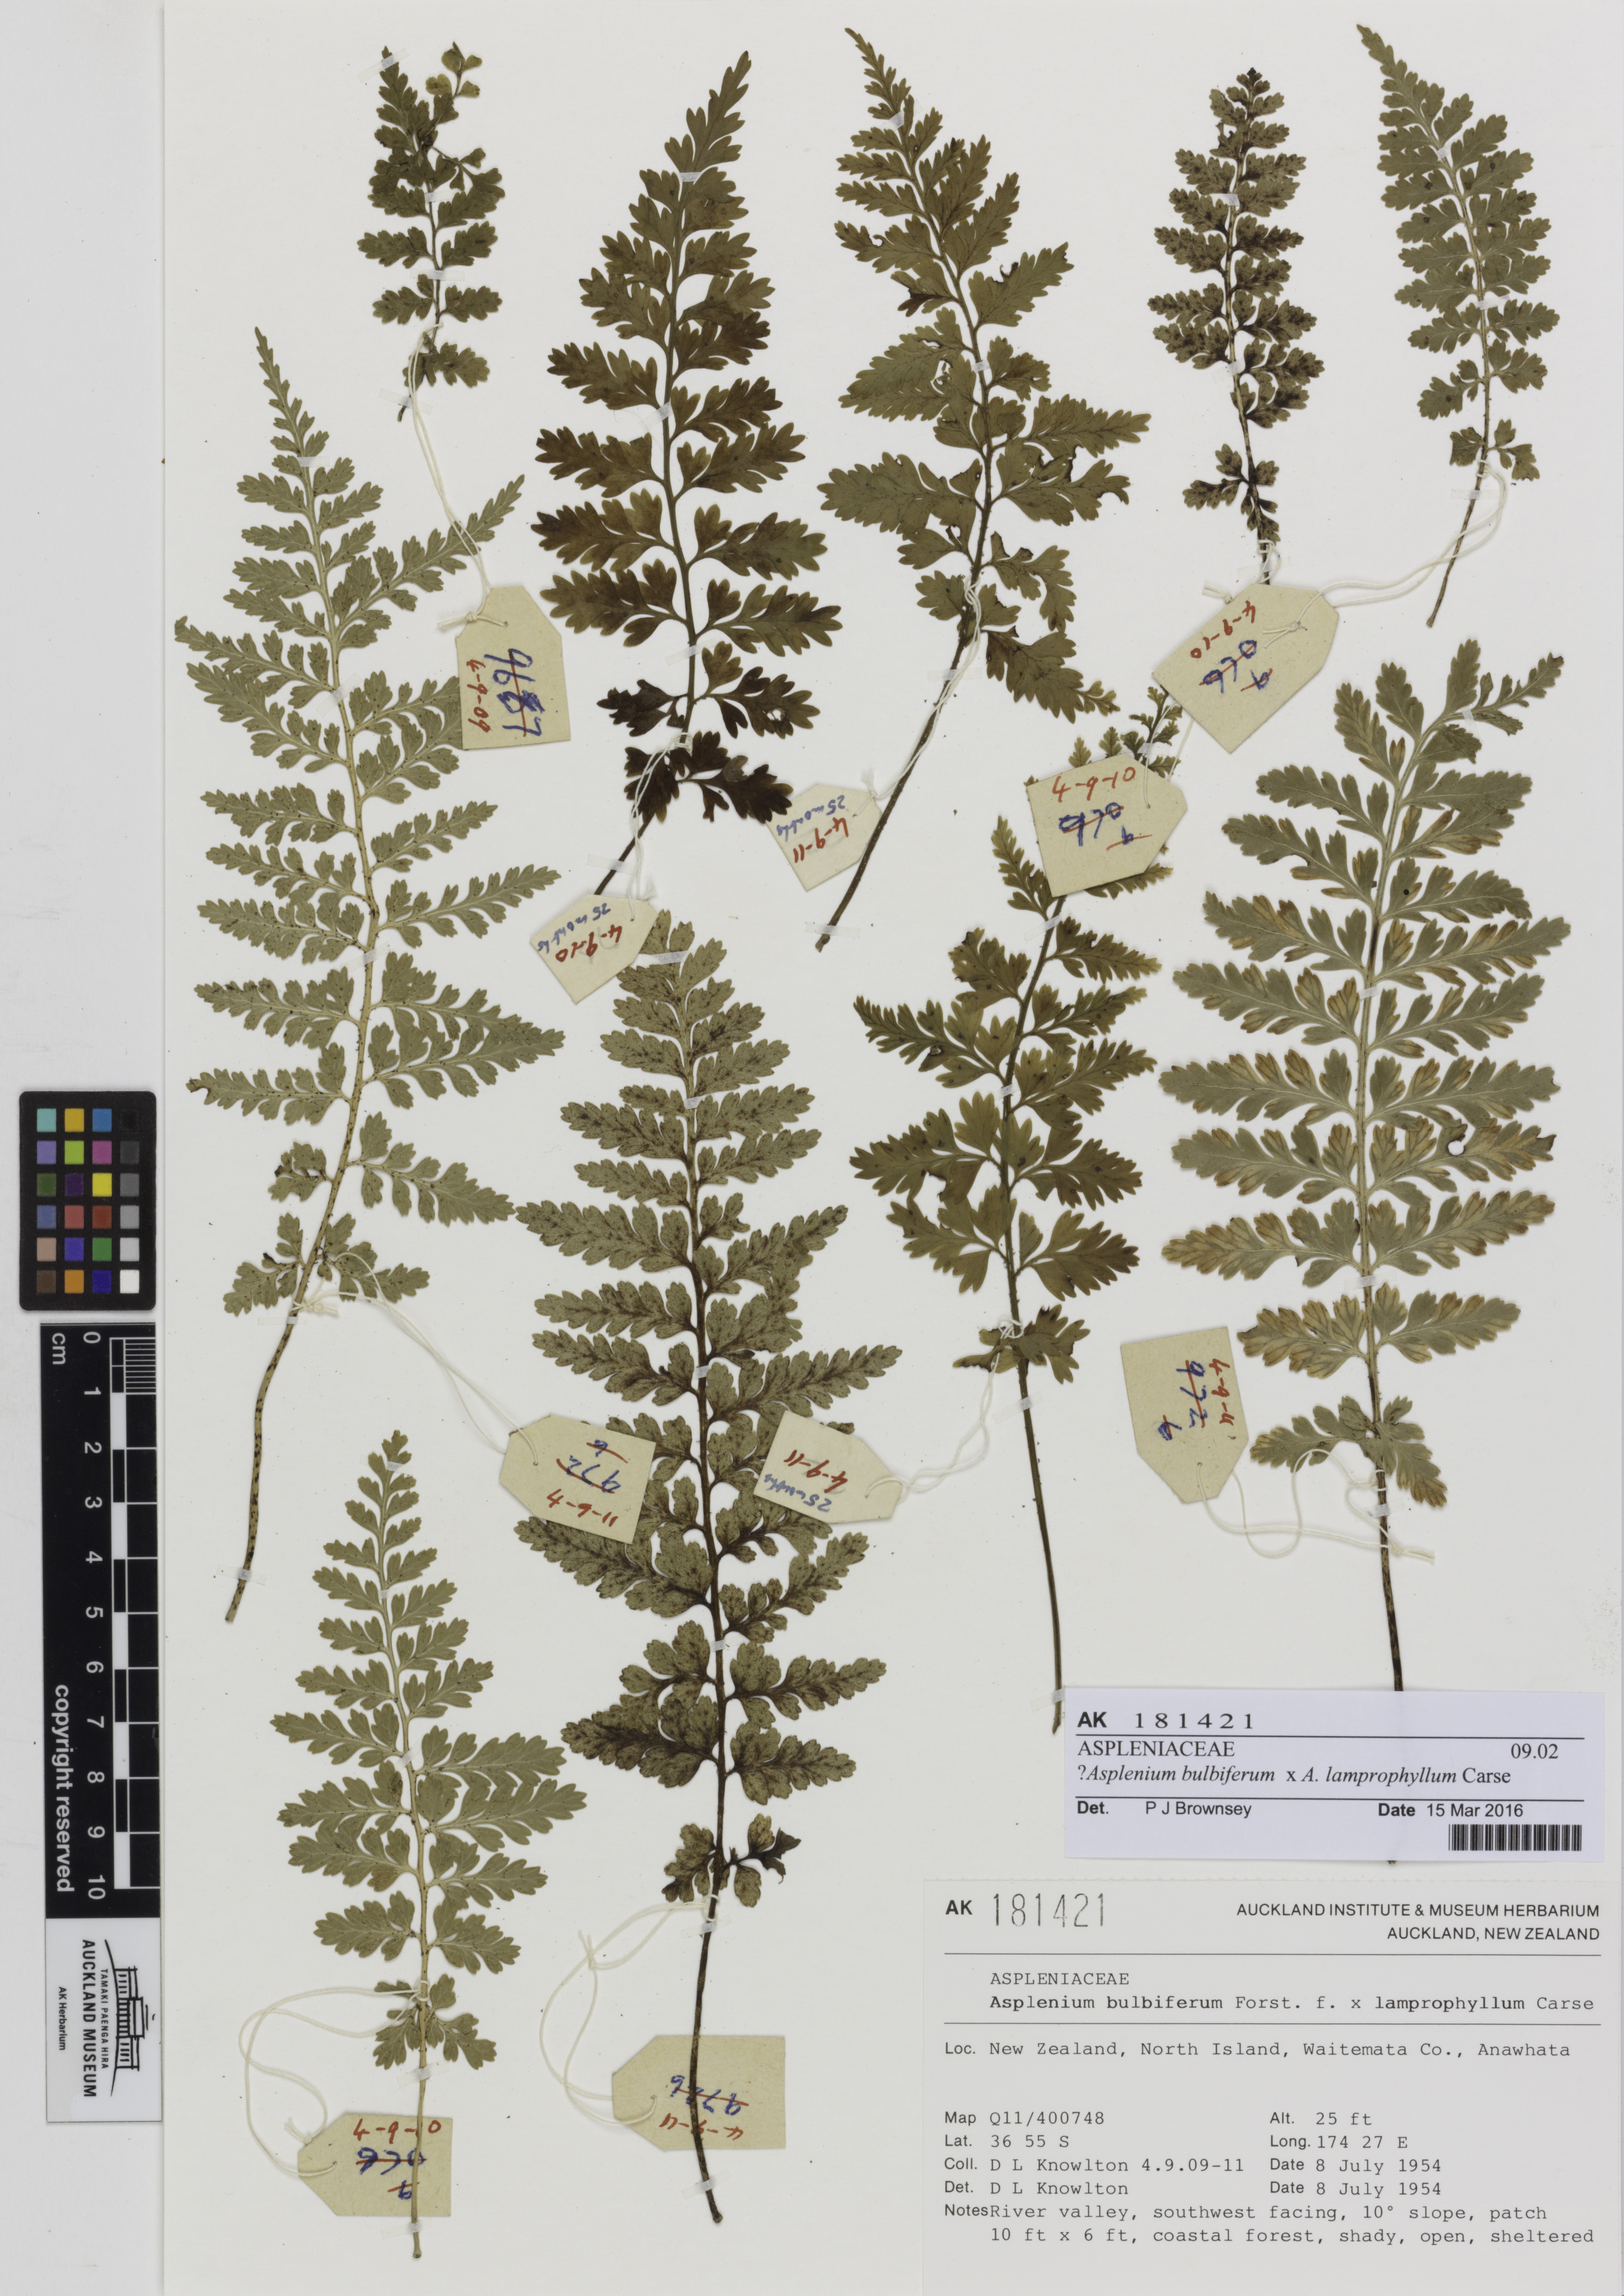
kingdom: Plantae
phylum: Tracheophyta
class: Polypodiopsida
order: Polypodiales
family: Aspleniaceae
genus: Asplenium
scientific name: Asplenium
